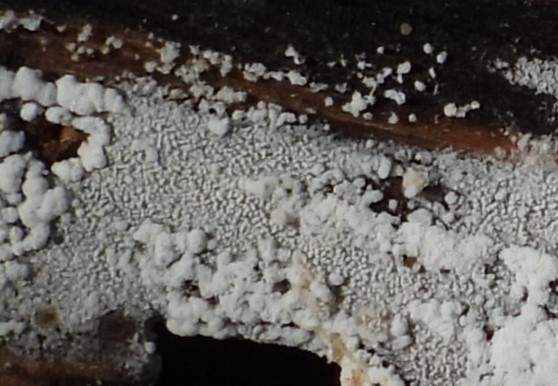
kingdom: Fungi
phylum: Basidiomycota
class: Agaricomycetes
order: Trechisporales
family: Sistotremataceae
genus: Trechispora
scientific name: Trechispora stevensonii
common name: støvende vathinde
